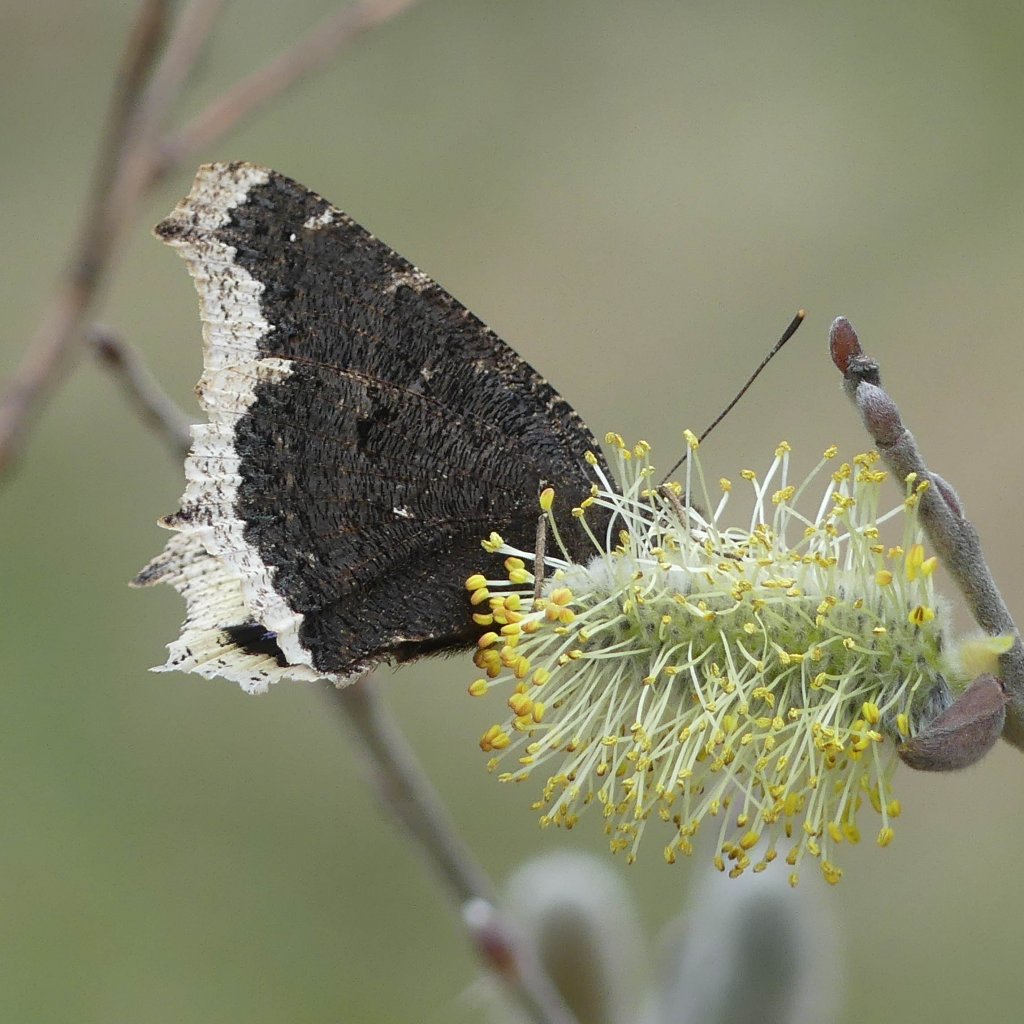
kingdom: Animalia
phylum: Arthropoda
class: Insecta
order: Lepidoptera
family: Nymphalidae
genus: Nymphalis
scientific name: Nymphalis antiopa
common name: Mourning Cloak
